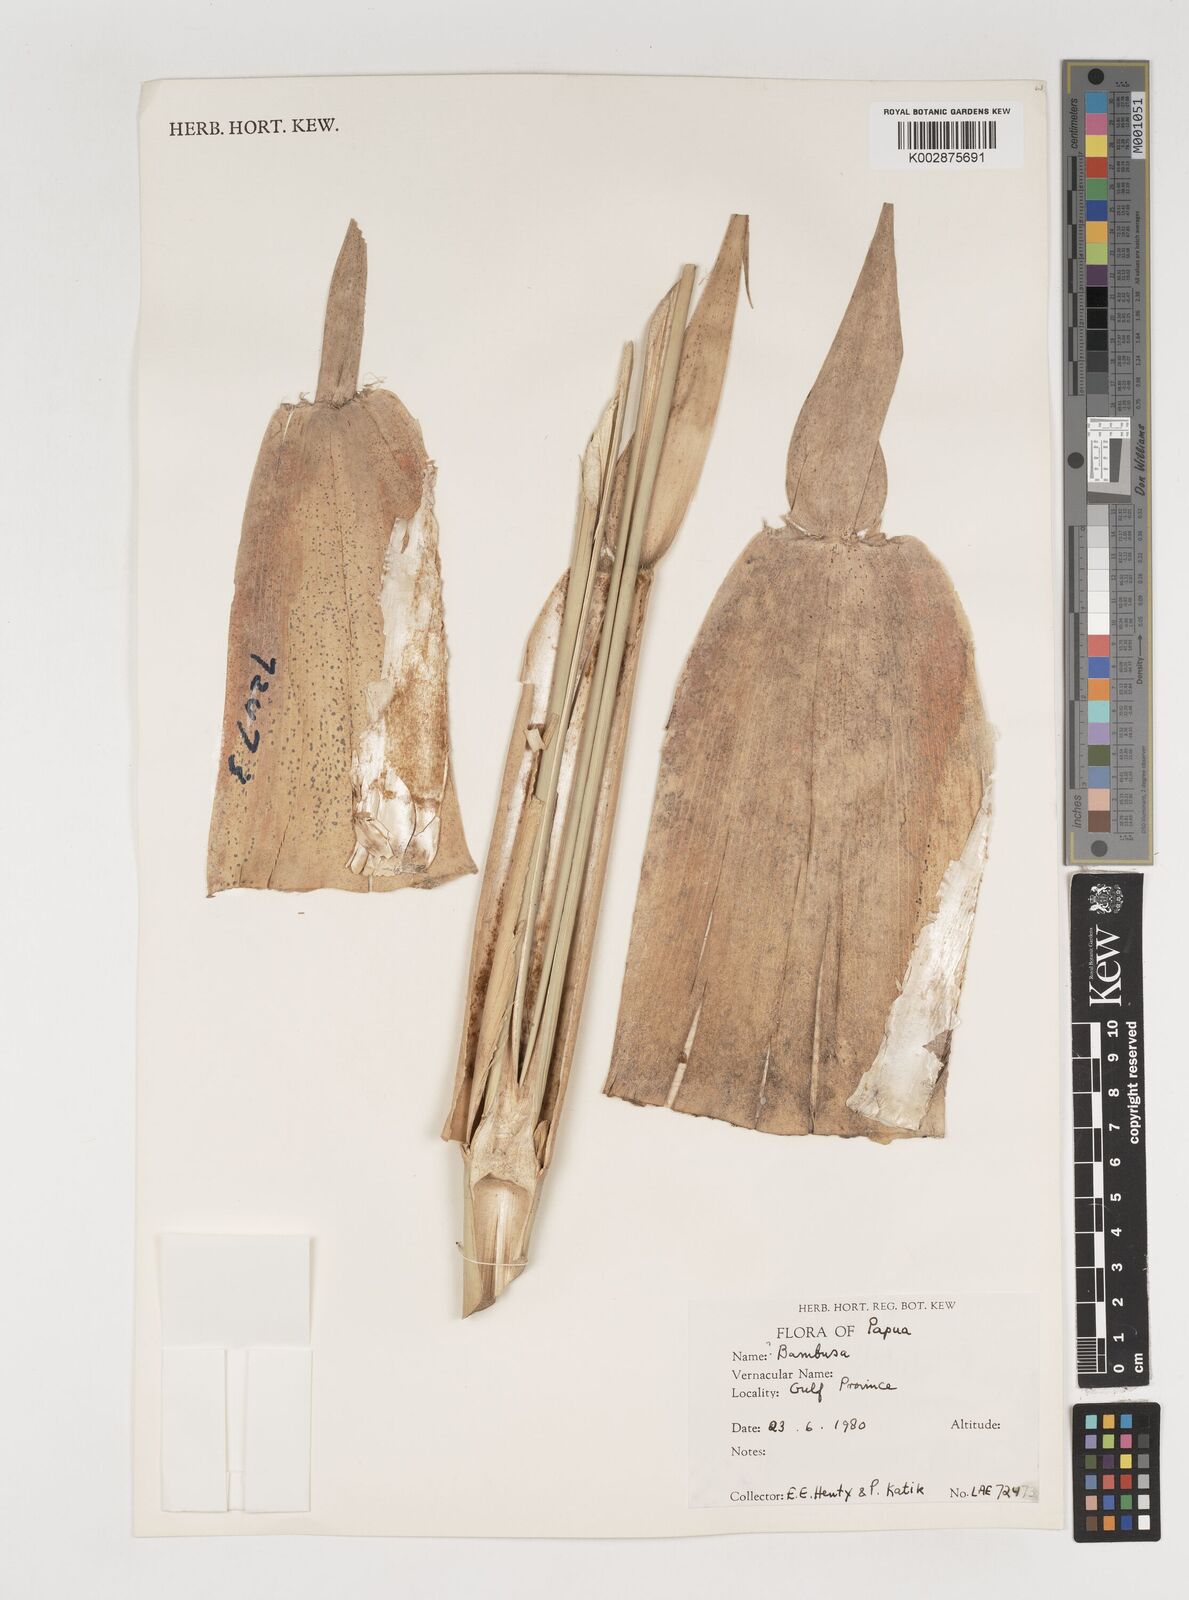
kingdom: Plantae
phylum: Tracheophyta
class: Liliopsida
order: Poales
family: Poaceae
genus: Neololeba
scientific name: Neololeba atra
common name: Cape bamboo
